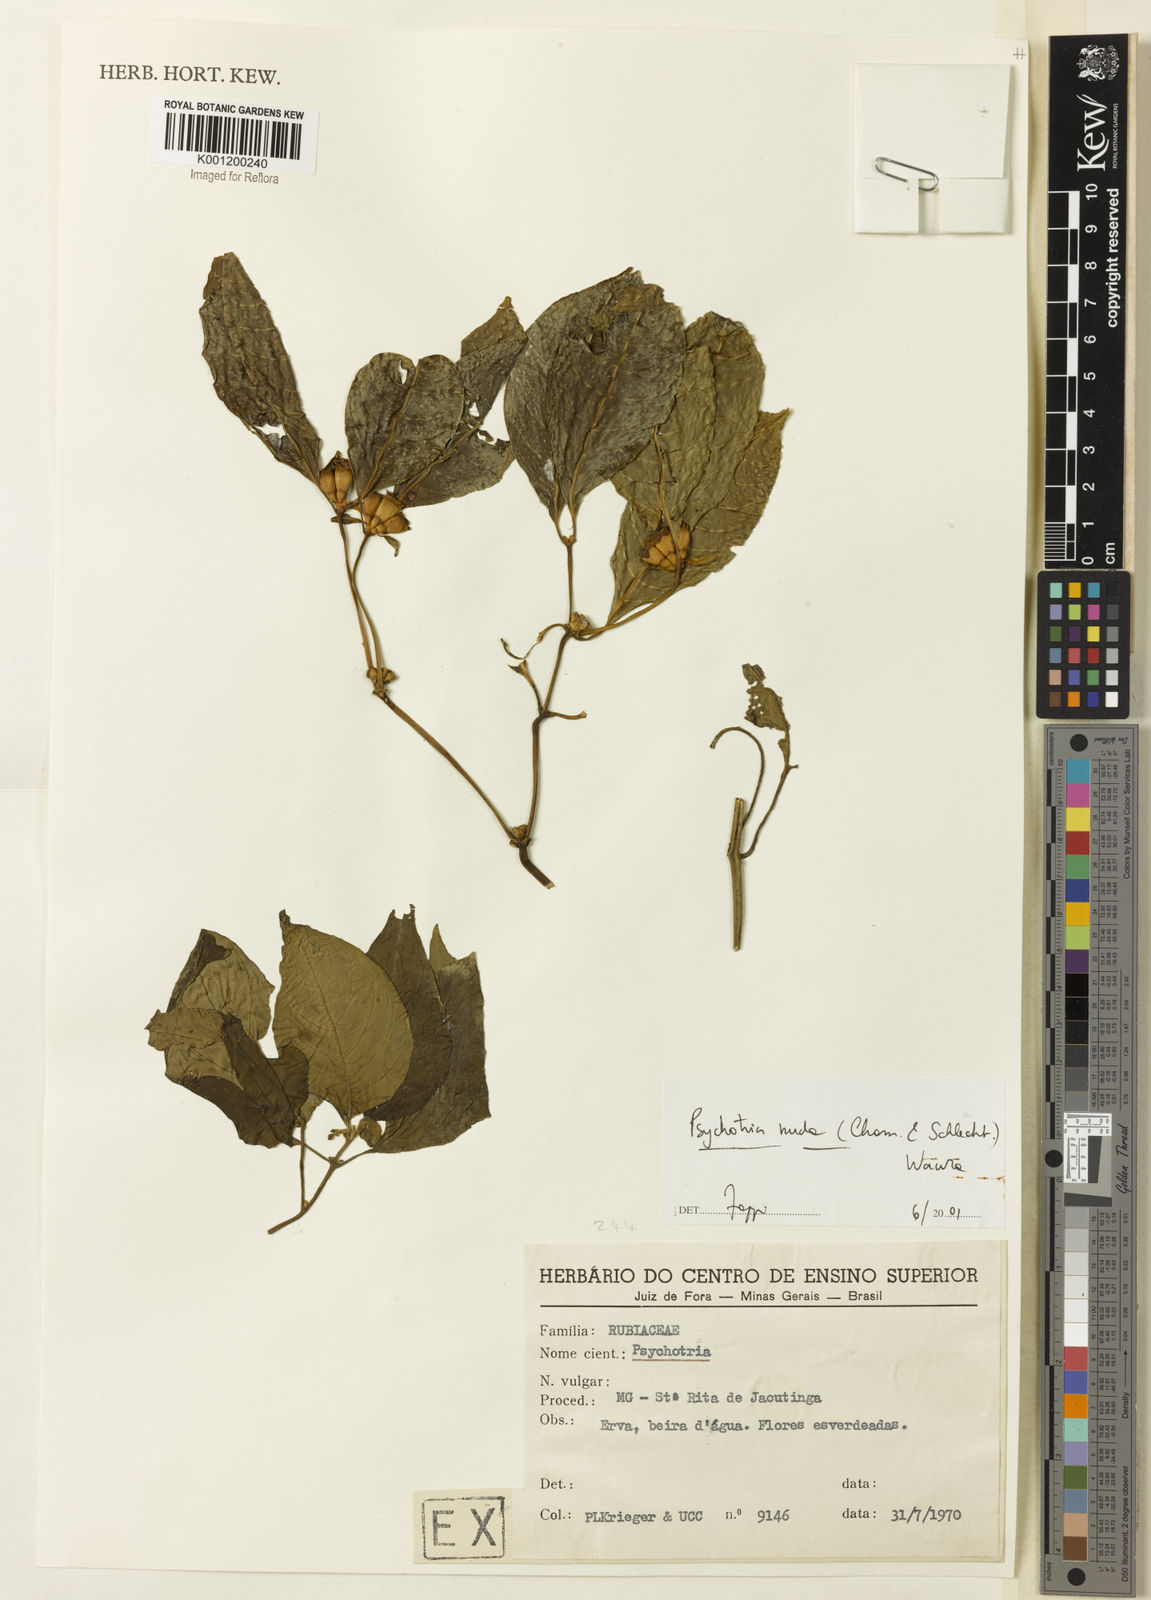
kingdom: Plantae
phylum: Tracheophyta
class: Magnoliopsida
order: Gentianales
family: Rubiaceae
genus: Psychotria
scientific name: Psychotria
